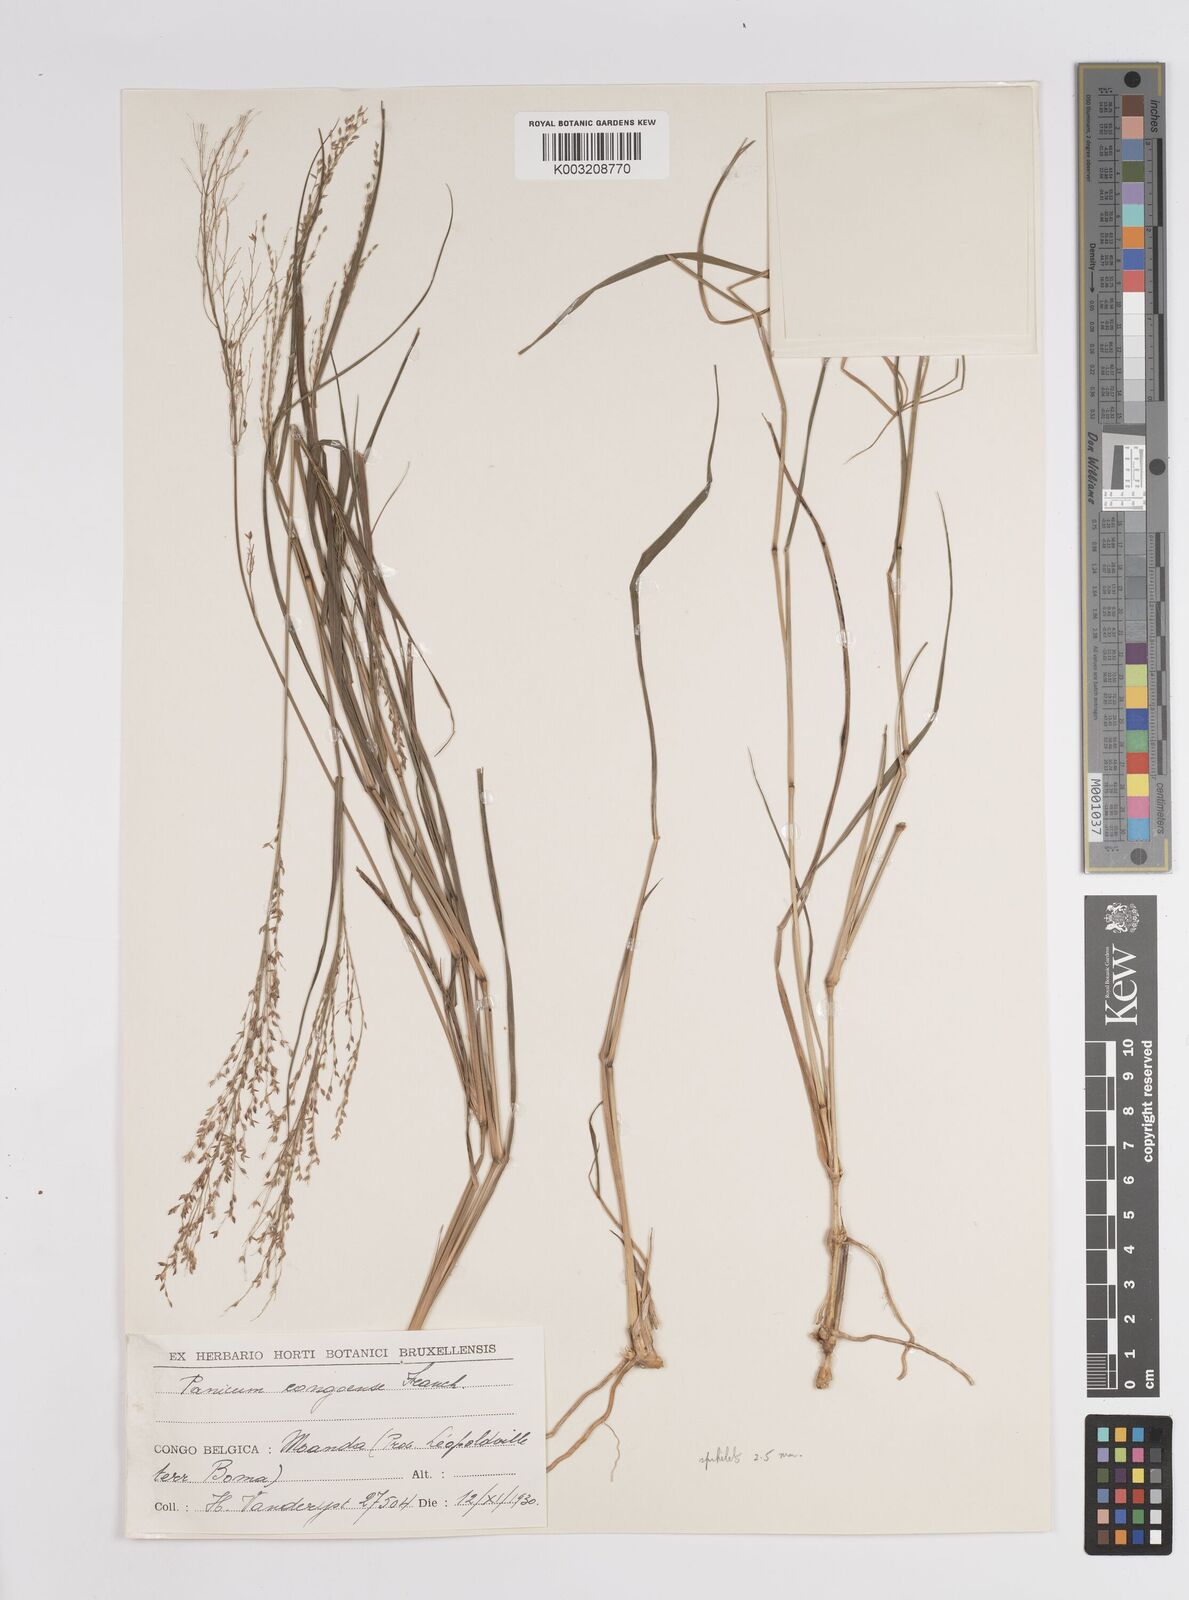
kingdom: Plantae
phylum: Tracheophyta
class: Liliopsida
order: Poales
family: Poaceae
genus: Panicum
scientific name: Panicum genuflexum
